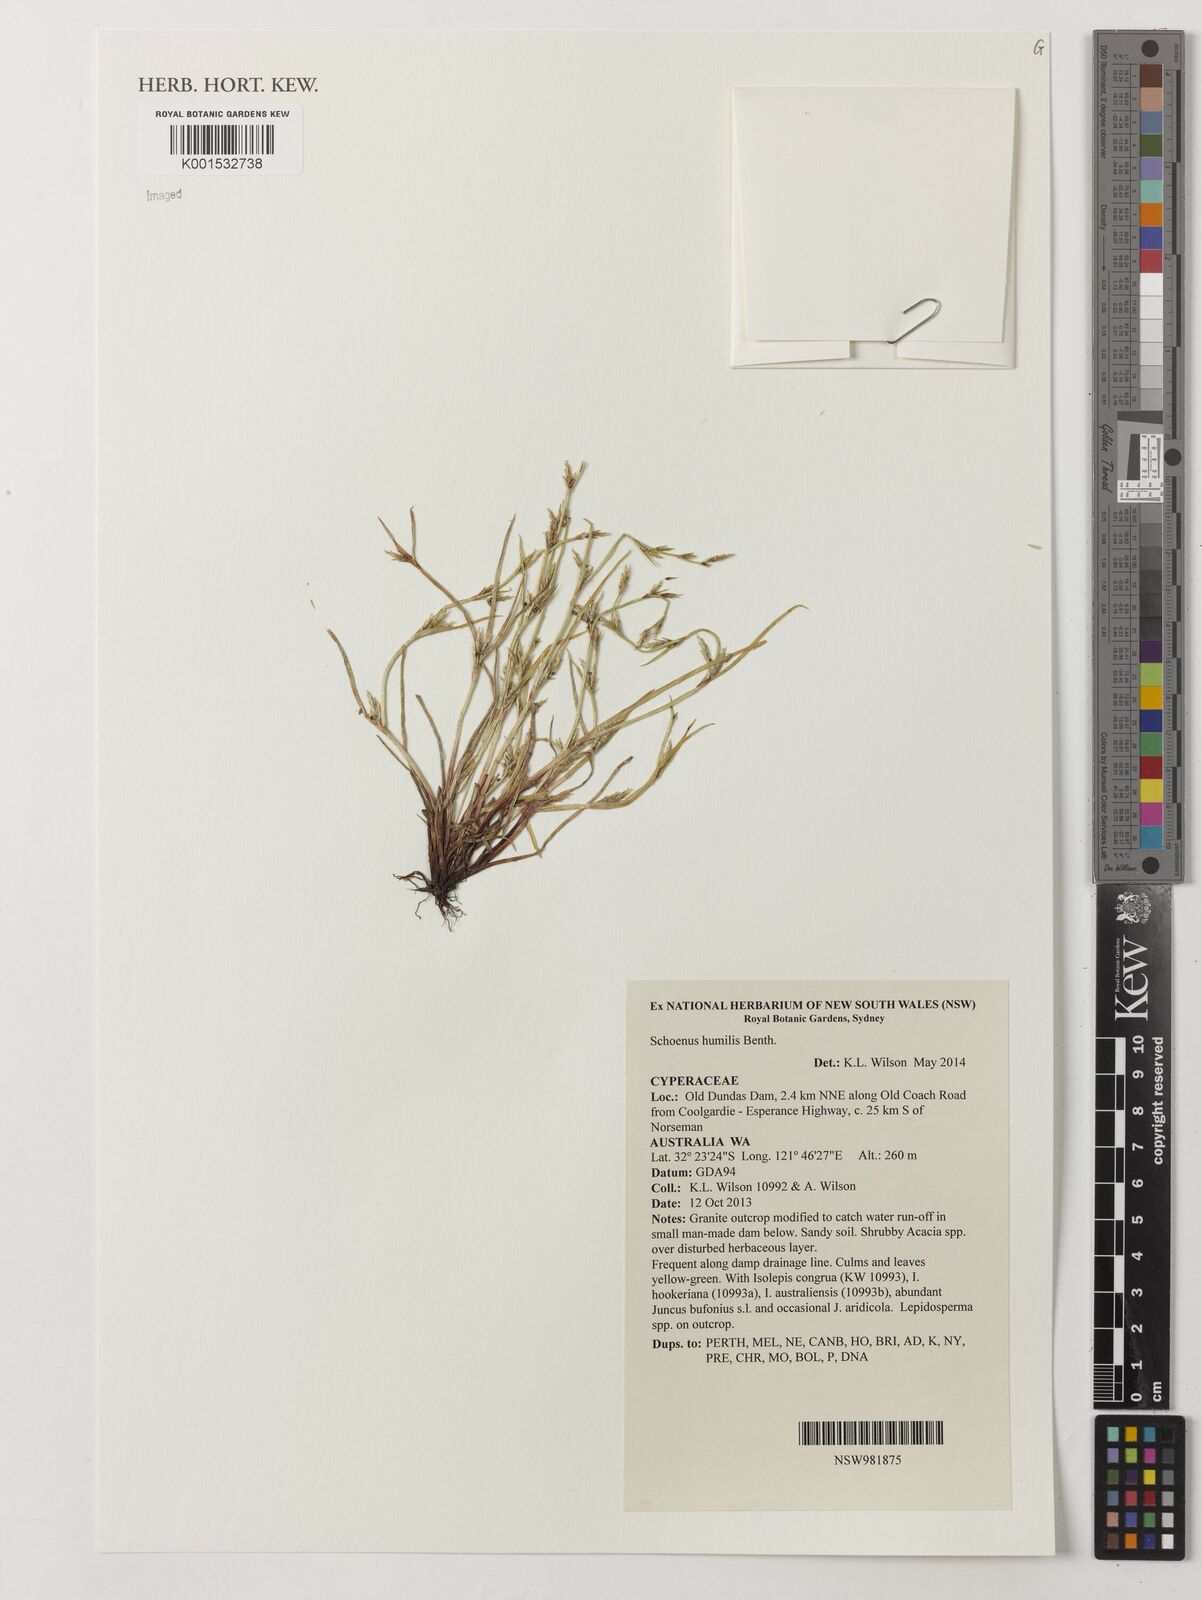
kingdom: Plantae
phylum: Tracheophyta
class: Liliopsida
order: Poales
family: Cyperaceae
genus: Schoenus
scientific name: Schoenus humilis
